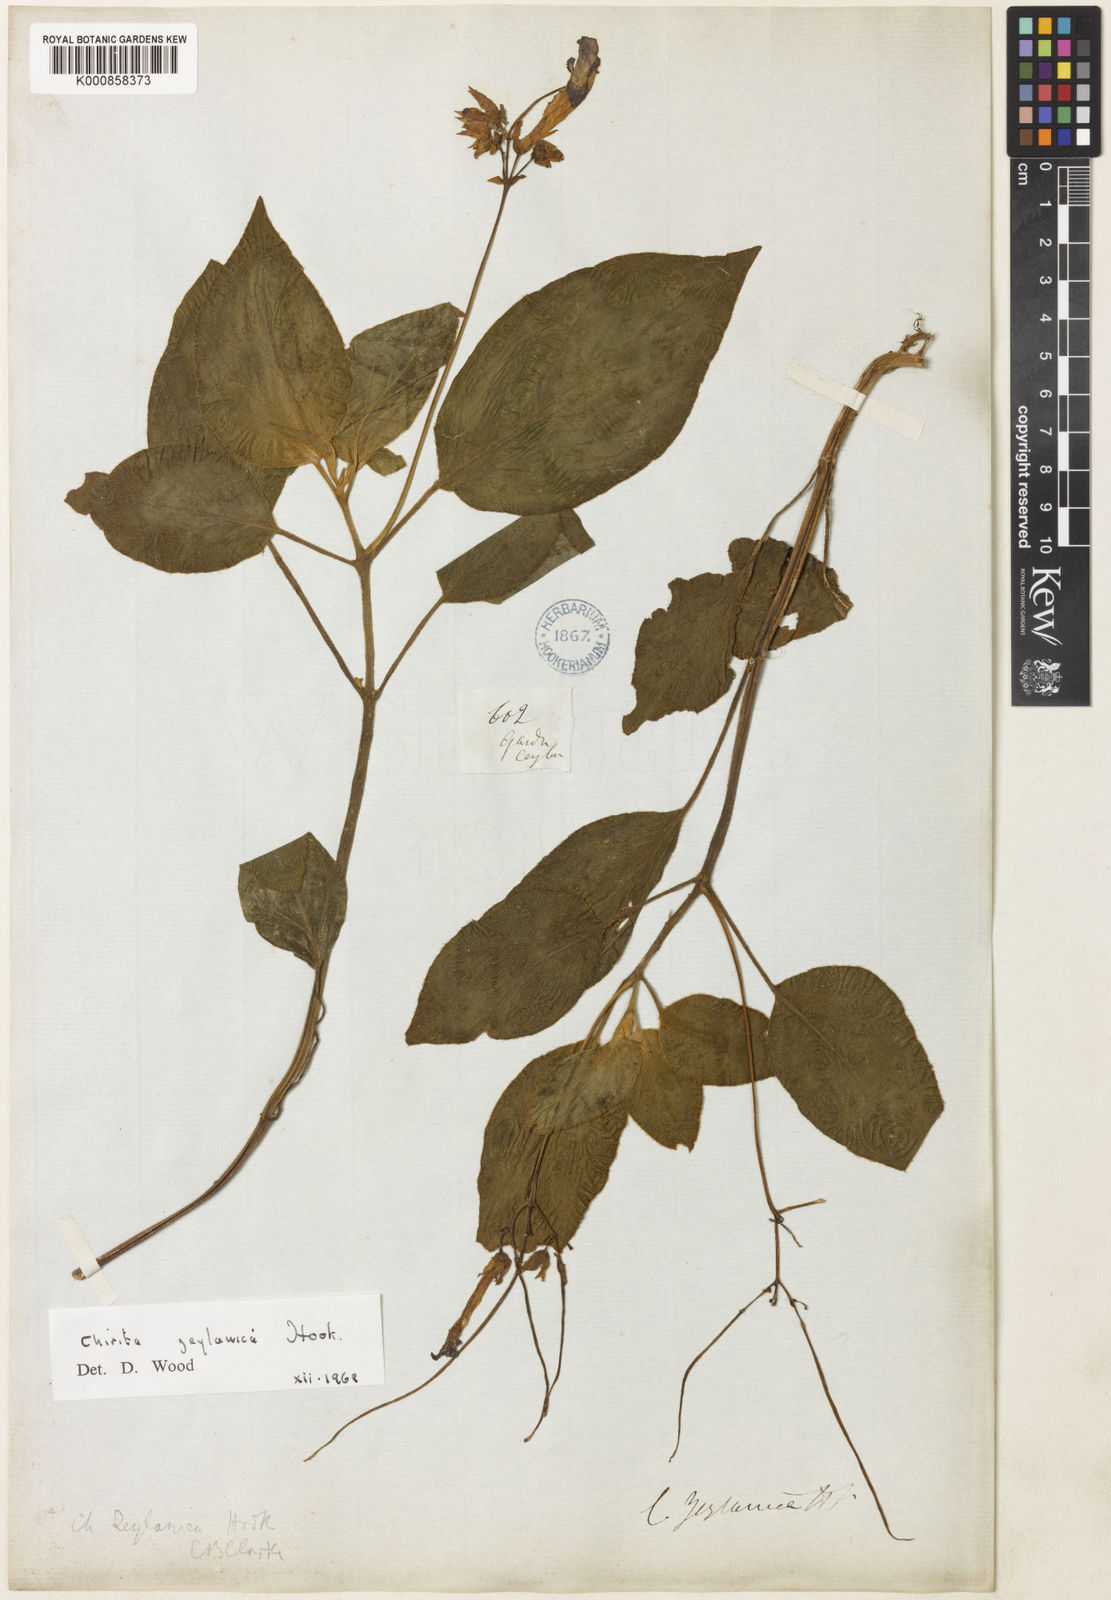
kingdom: Plantae
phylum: Tracheophyta
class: Magnoliopsida
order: Lamiales
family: Gesneriaceae
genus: Henckelia
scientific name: Henckelia communis
